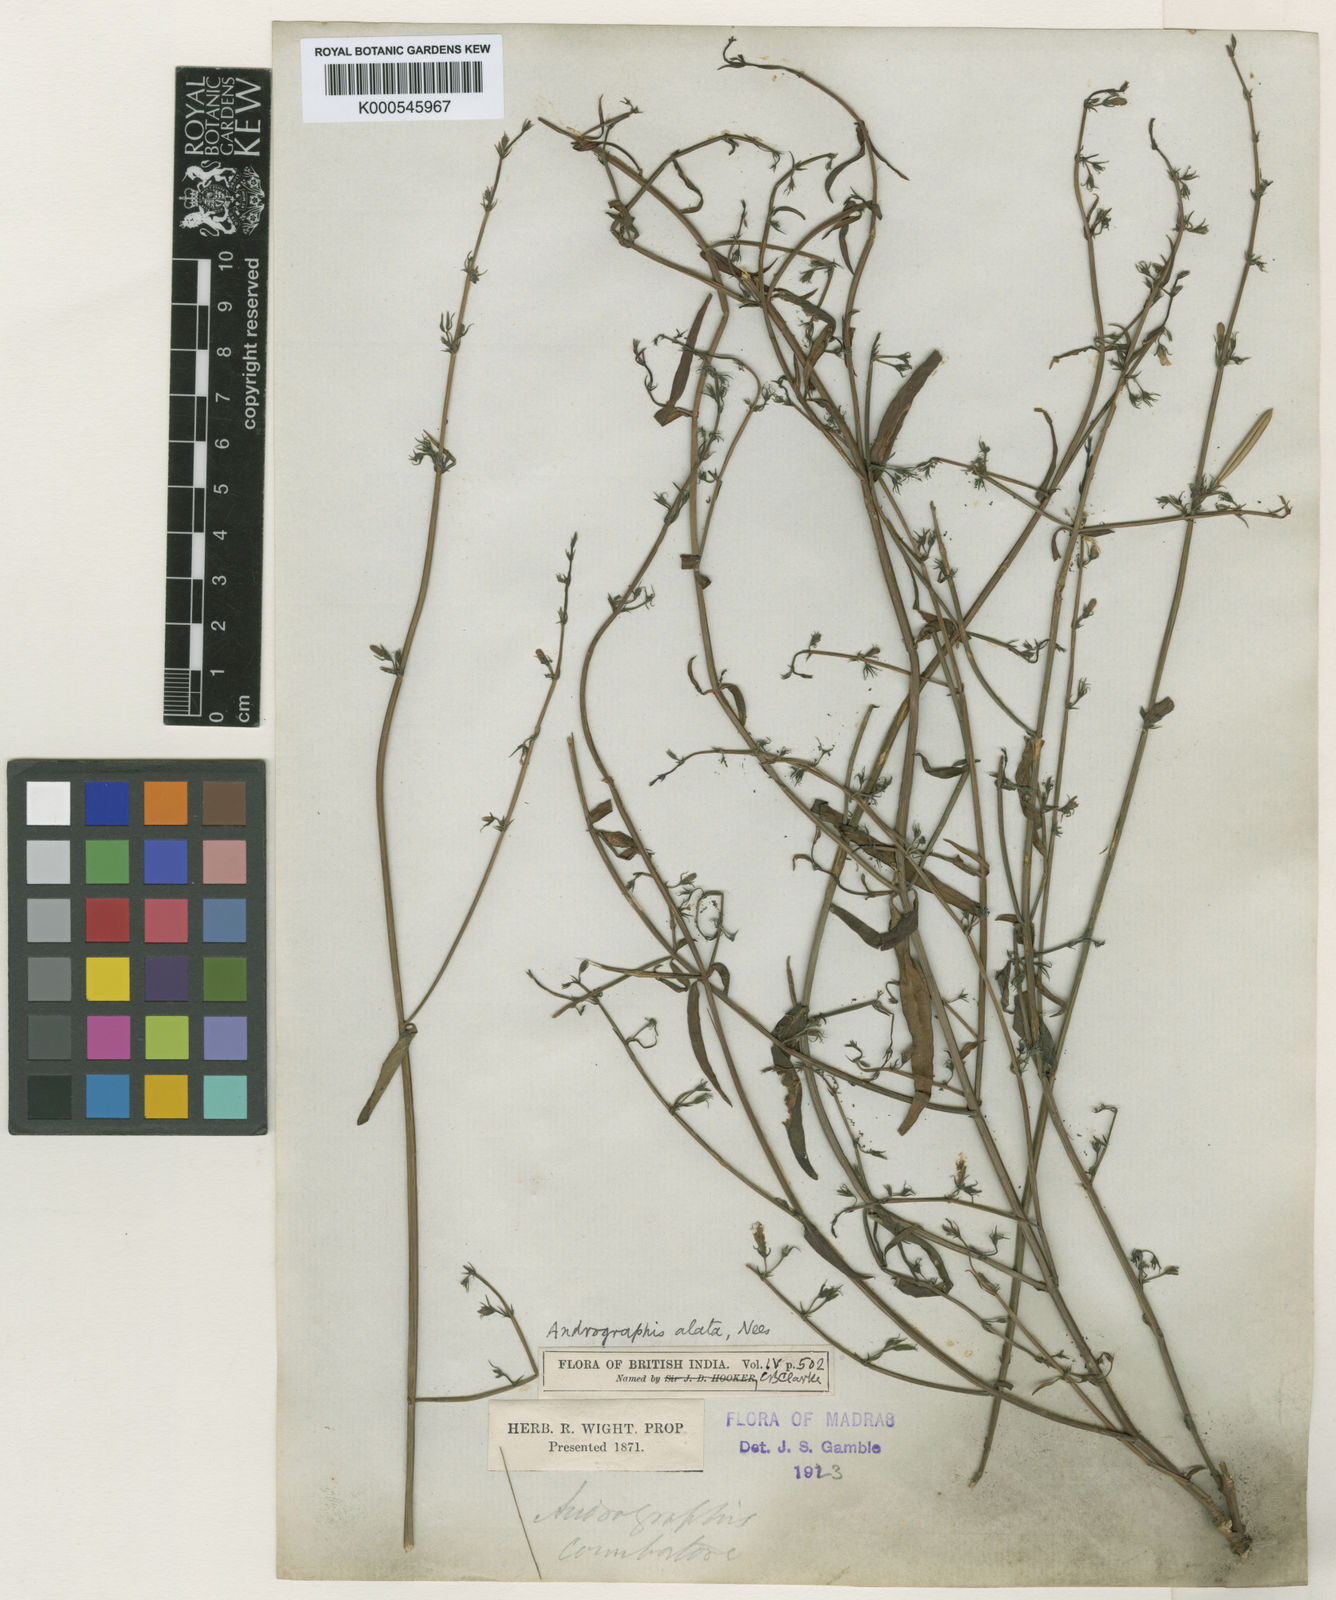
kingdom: Plantae
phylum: Tracheophyta
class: Magnoliopsida
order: Lamiales
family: Acanthaceae
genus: Andrographis
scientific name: Andrographis alata
